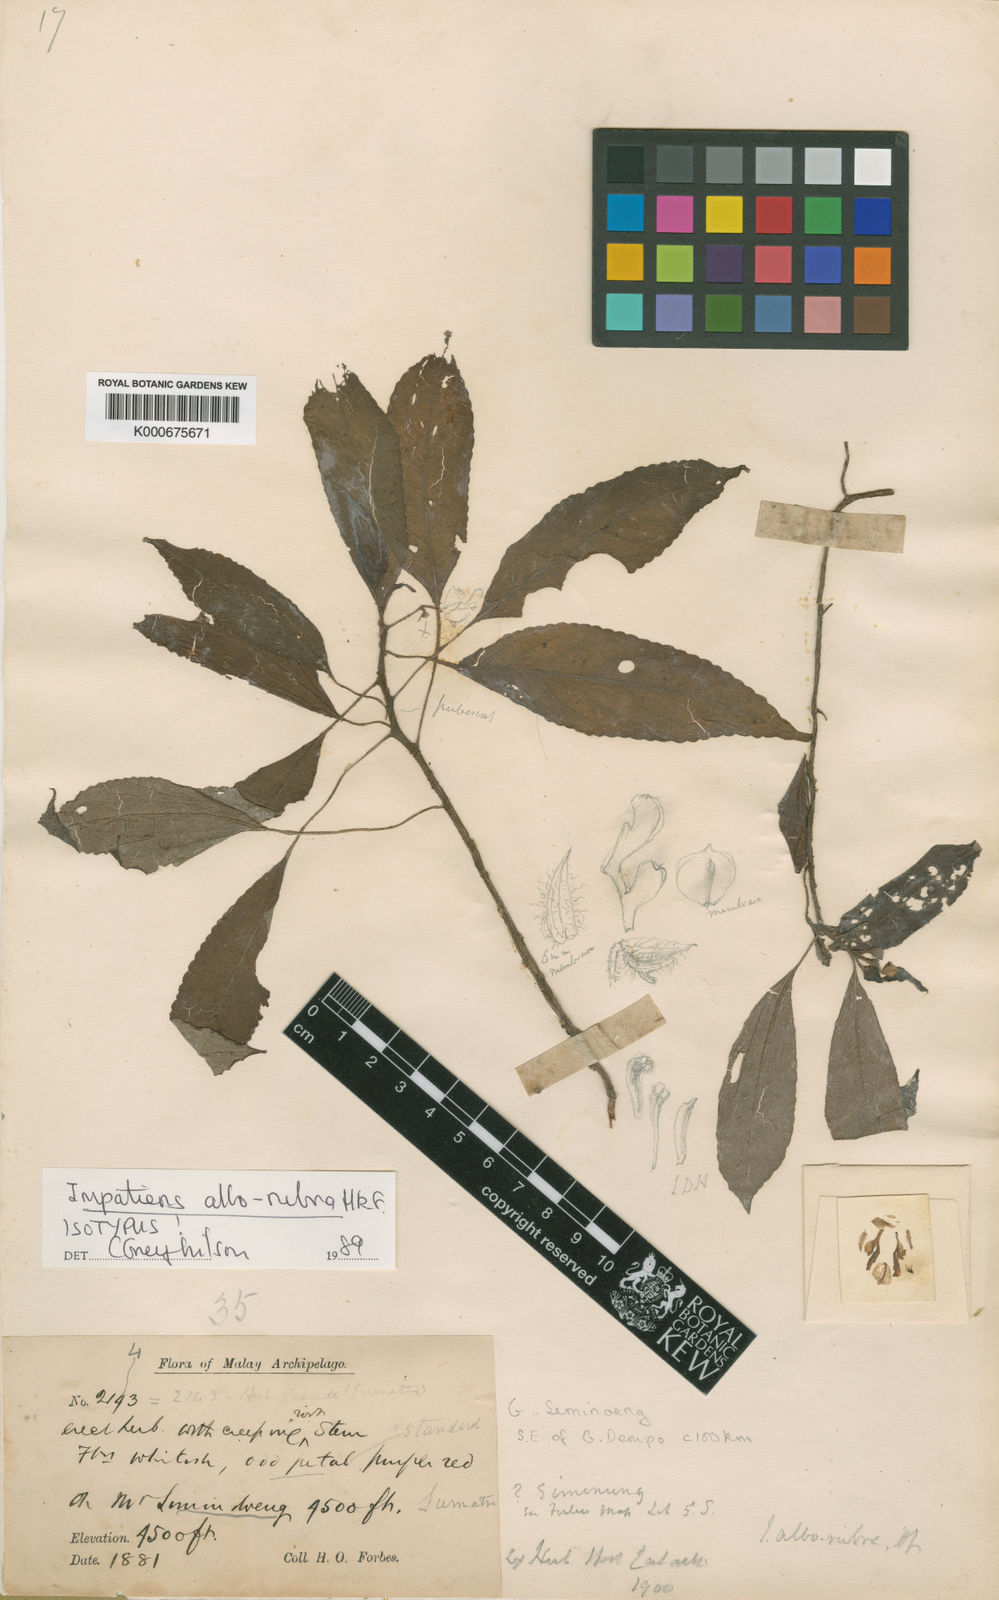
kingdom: Plantae
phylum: Tracheophyta
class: Magnoliopsida
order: Ericales
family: Balsaminaceae
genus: Impatiens
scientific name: Impatiens
